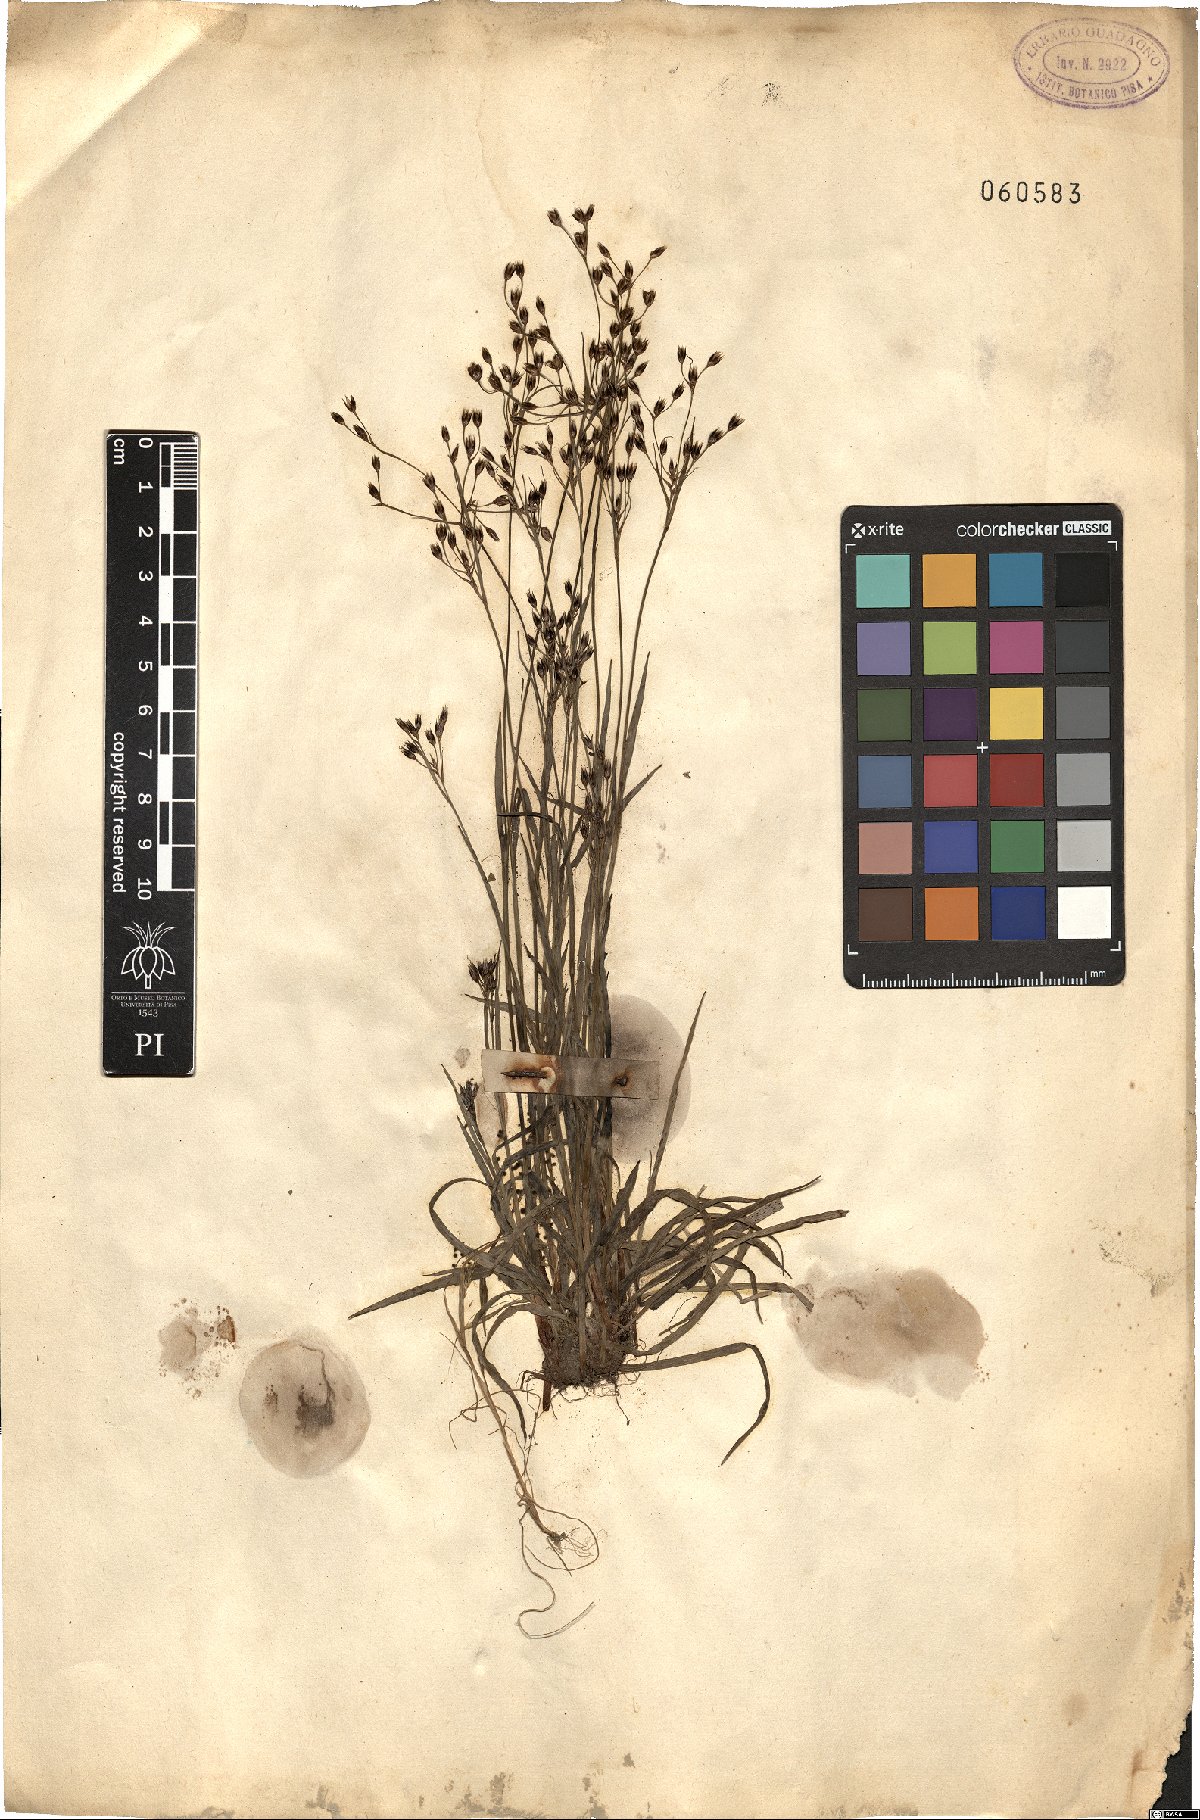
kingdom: Plantae
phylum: Tracheophyta
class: Liliopsida
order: Poales
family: Juncaceae
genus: Juncus
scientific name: Juncus
